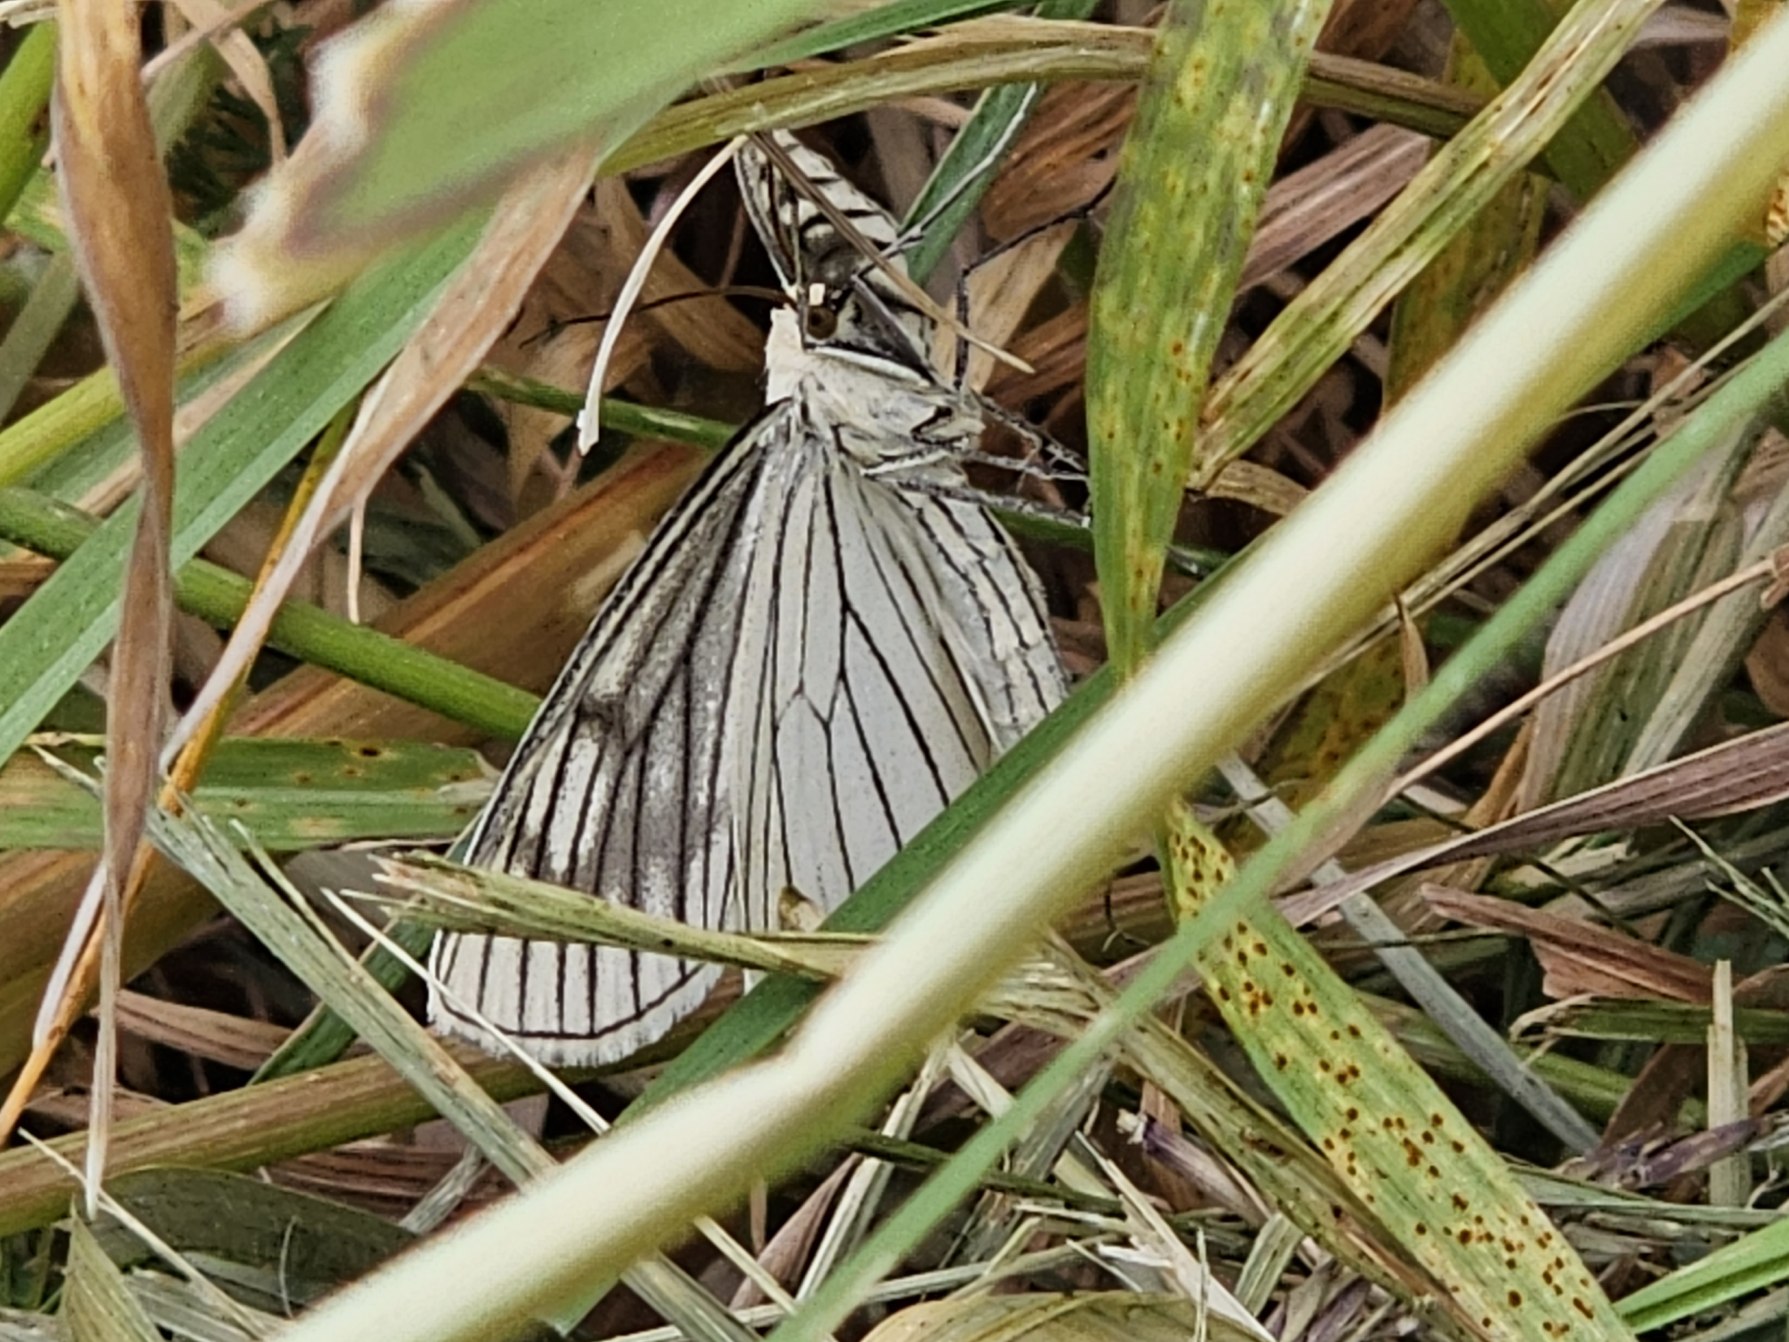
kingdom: Animalia
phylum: Arthropoda
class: Insecta
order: Lepidoptera
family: Geometridae
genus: Siona
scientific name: Siona lineata
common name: Hvidvingemåler
